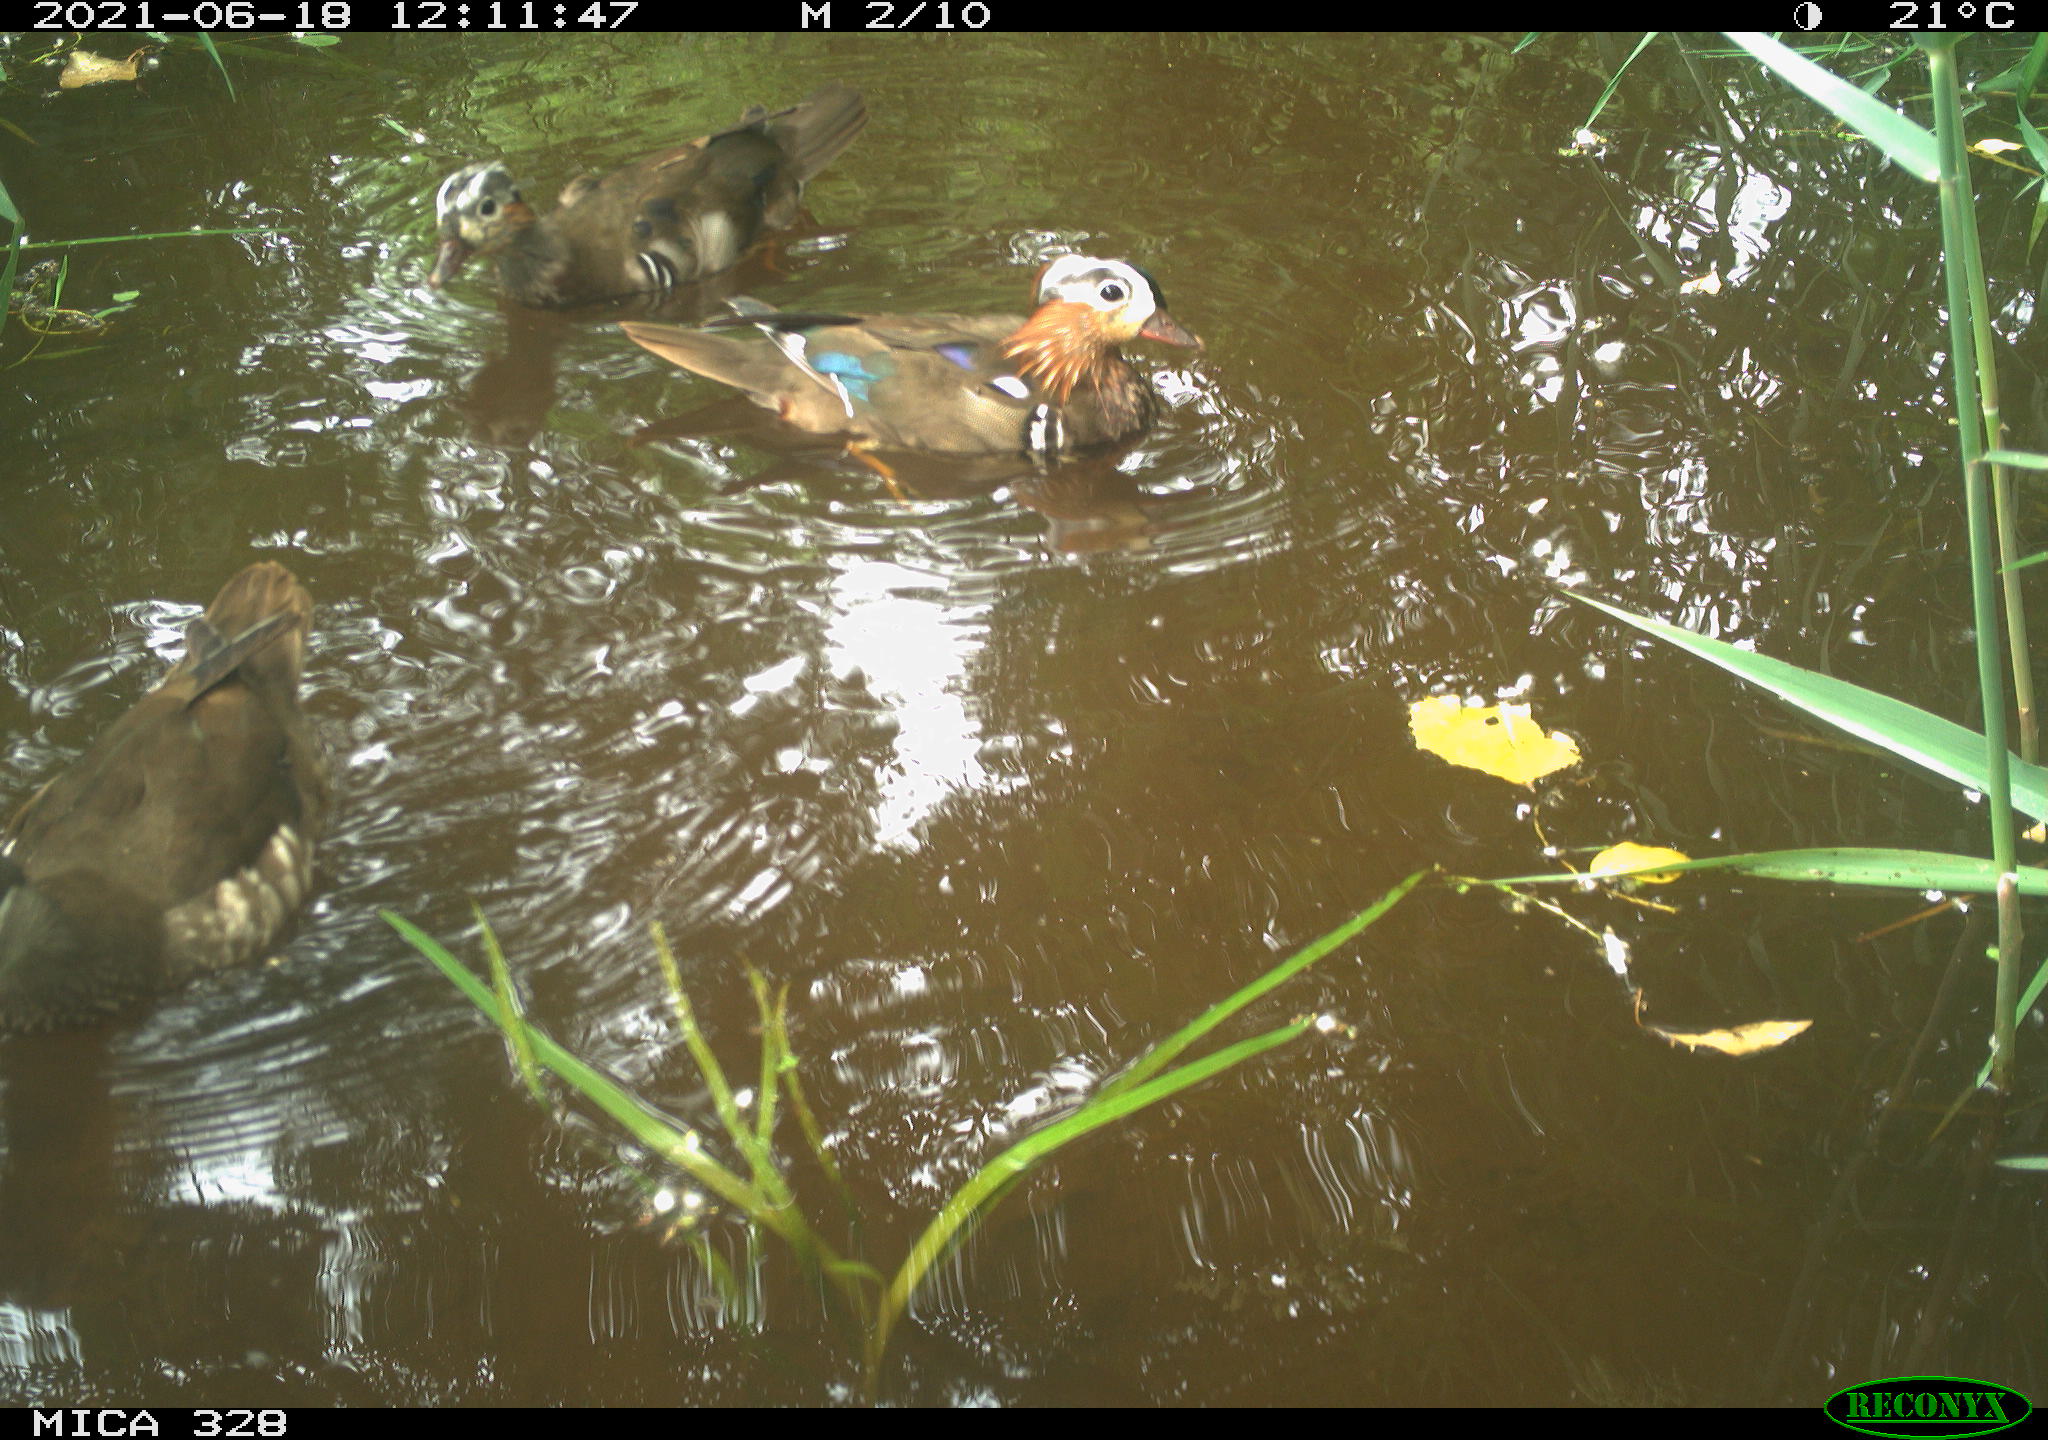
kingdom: Animalia
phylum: Chordata
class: Aves
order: Anseriformes
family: Anatidae
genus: Aix
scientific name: Aix galericulata
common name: Mandarin duck
